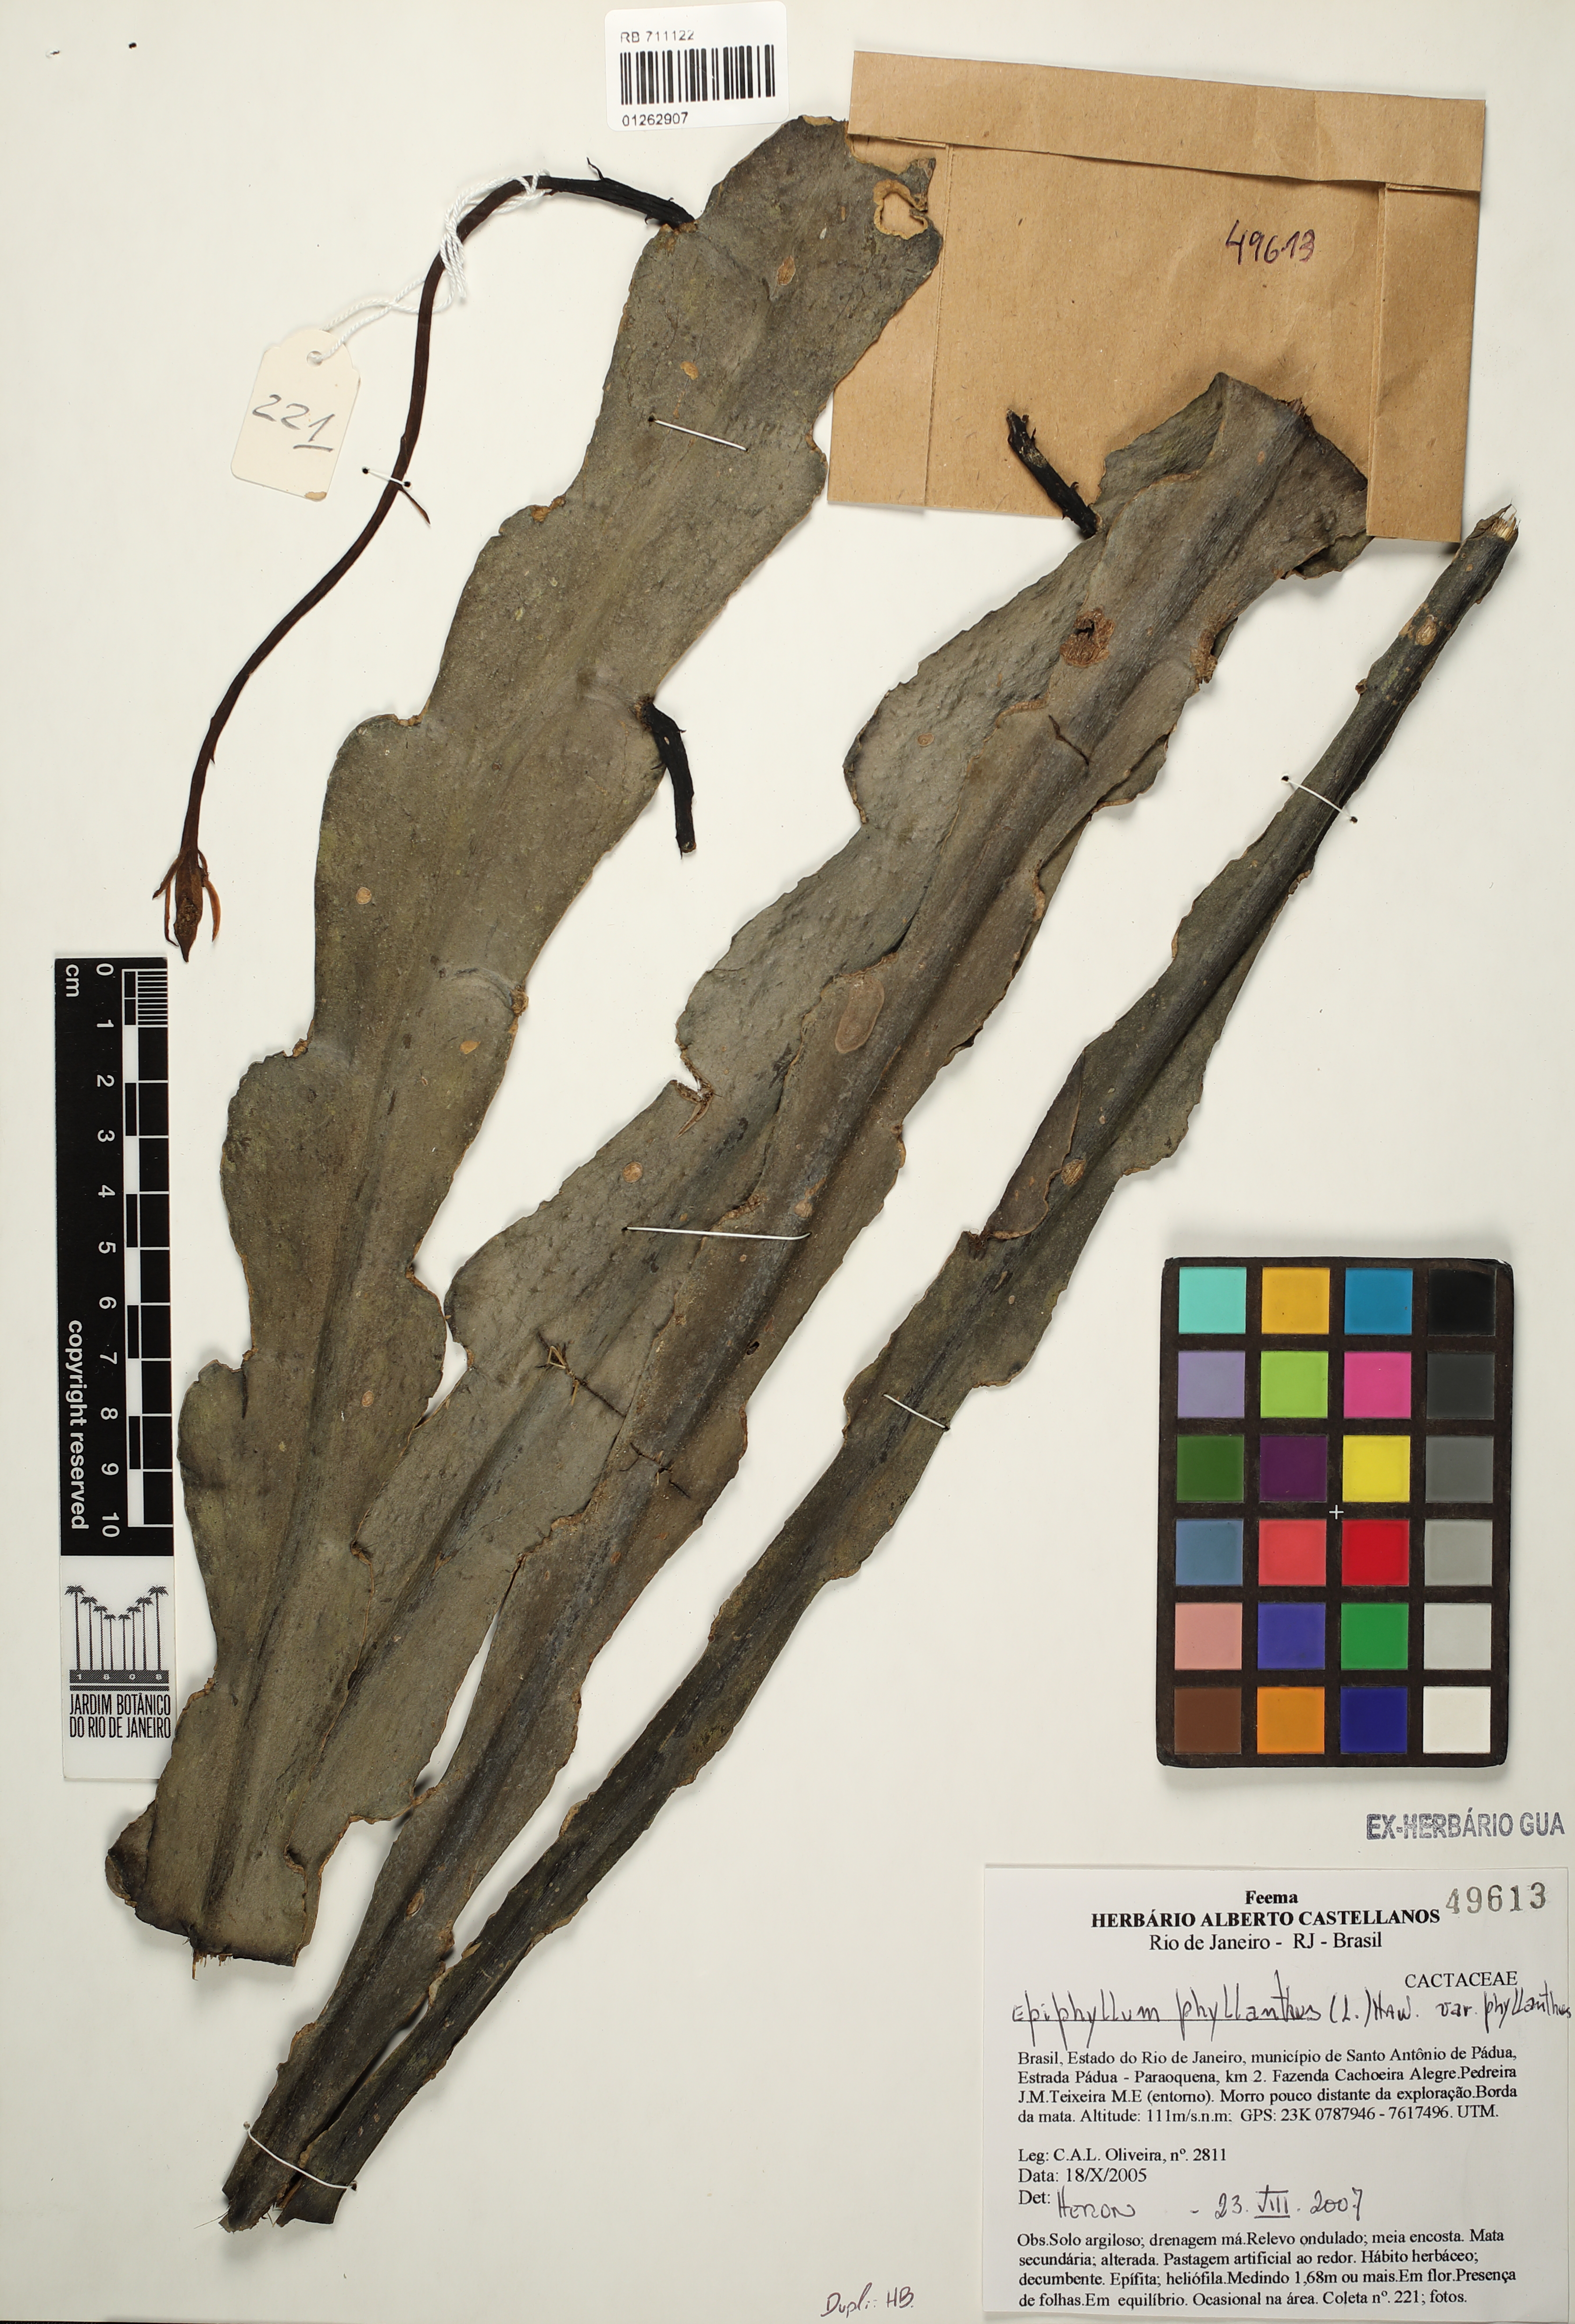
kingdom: Plantae
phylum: Tracheophyta
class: Magnoliopsida
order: Caryophyllales
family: Cactaceae
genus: Epiphyllum
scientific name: Epiphyllum phyllanthus
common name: Climbing cactus
